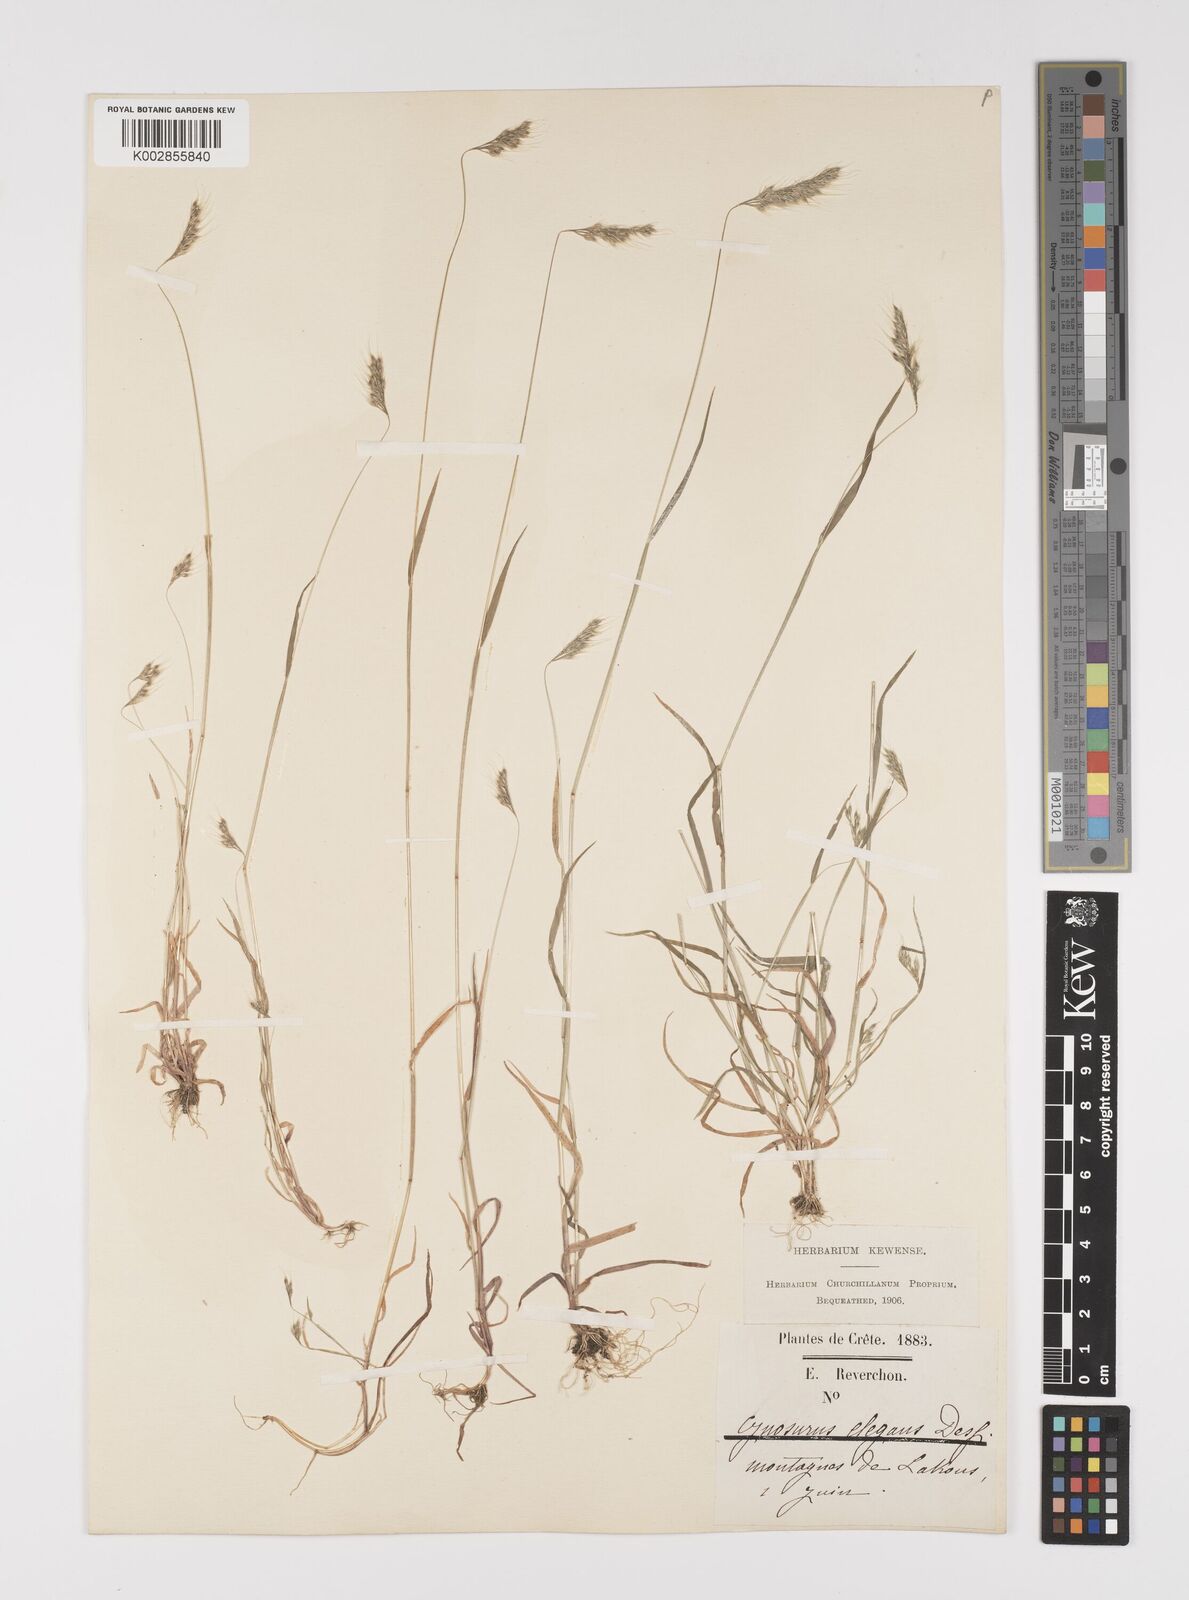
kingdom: Plantae
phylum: Tracheophyta
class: Liliopsida
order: Poales
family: Poaceae
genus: Cynosurus
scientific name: Cynosurus elegans
